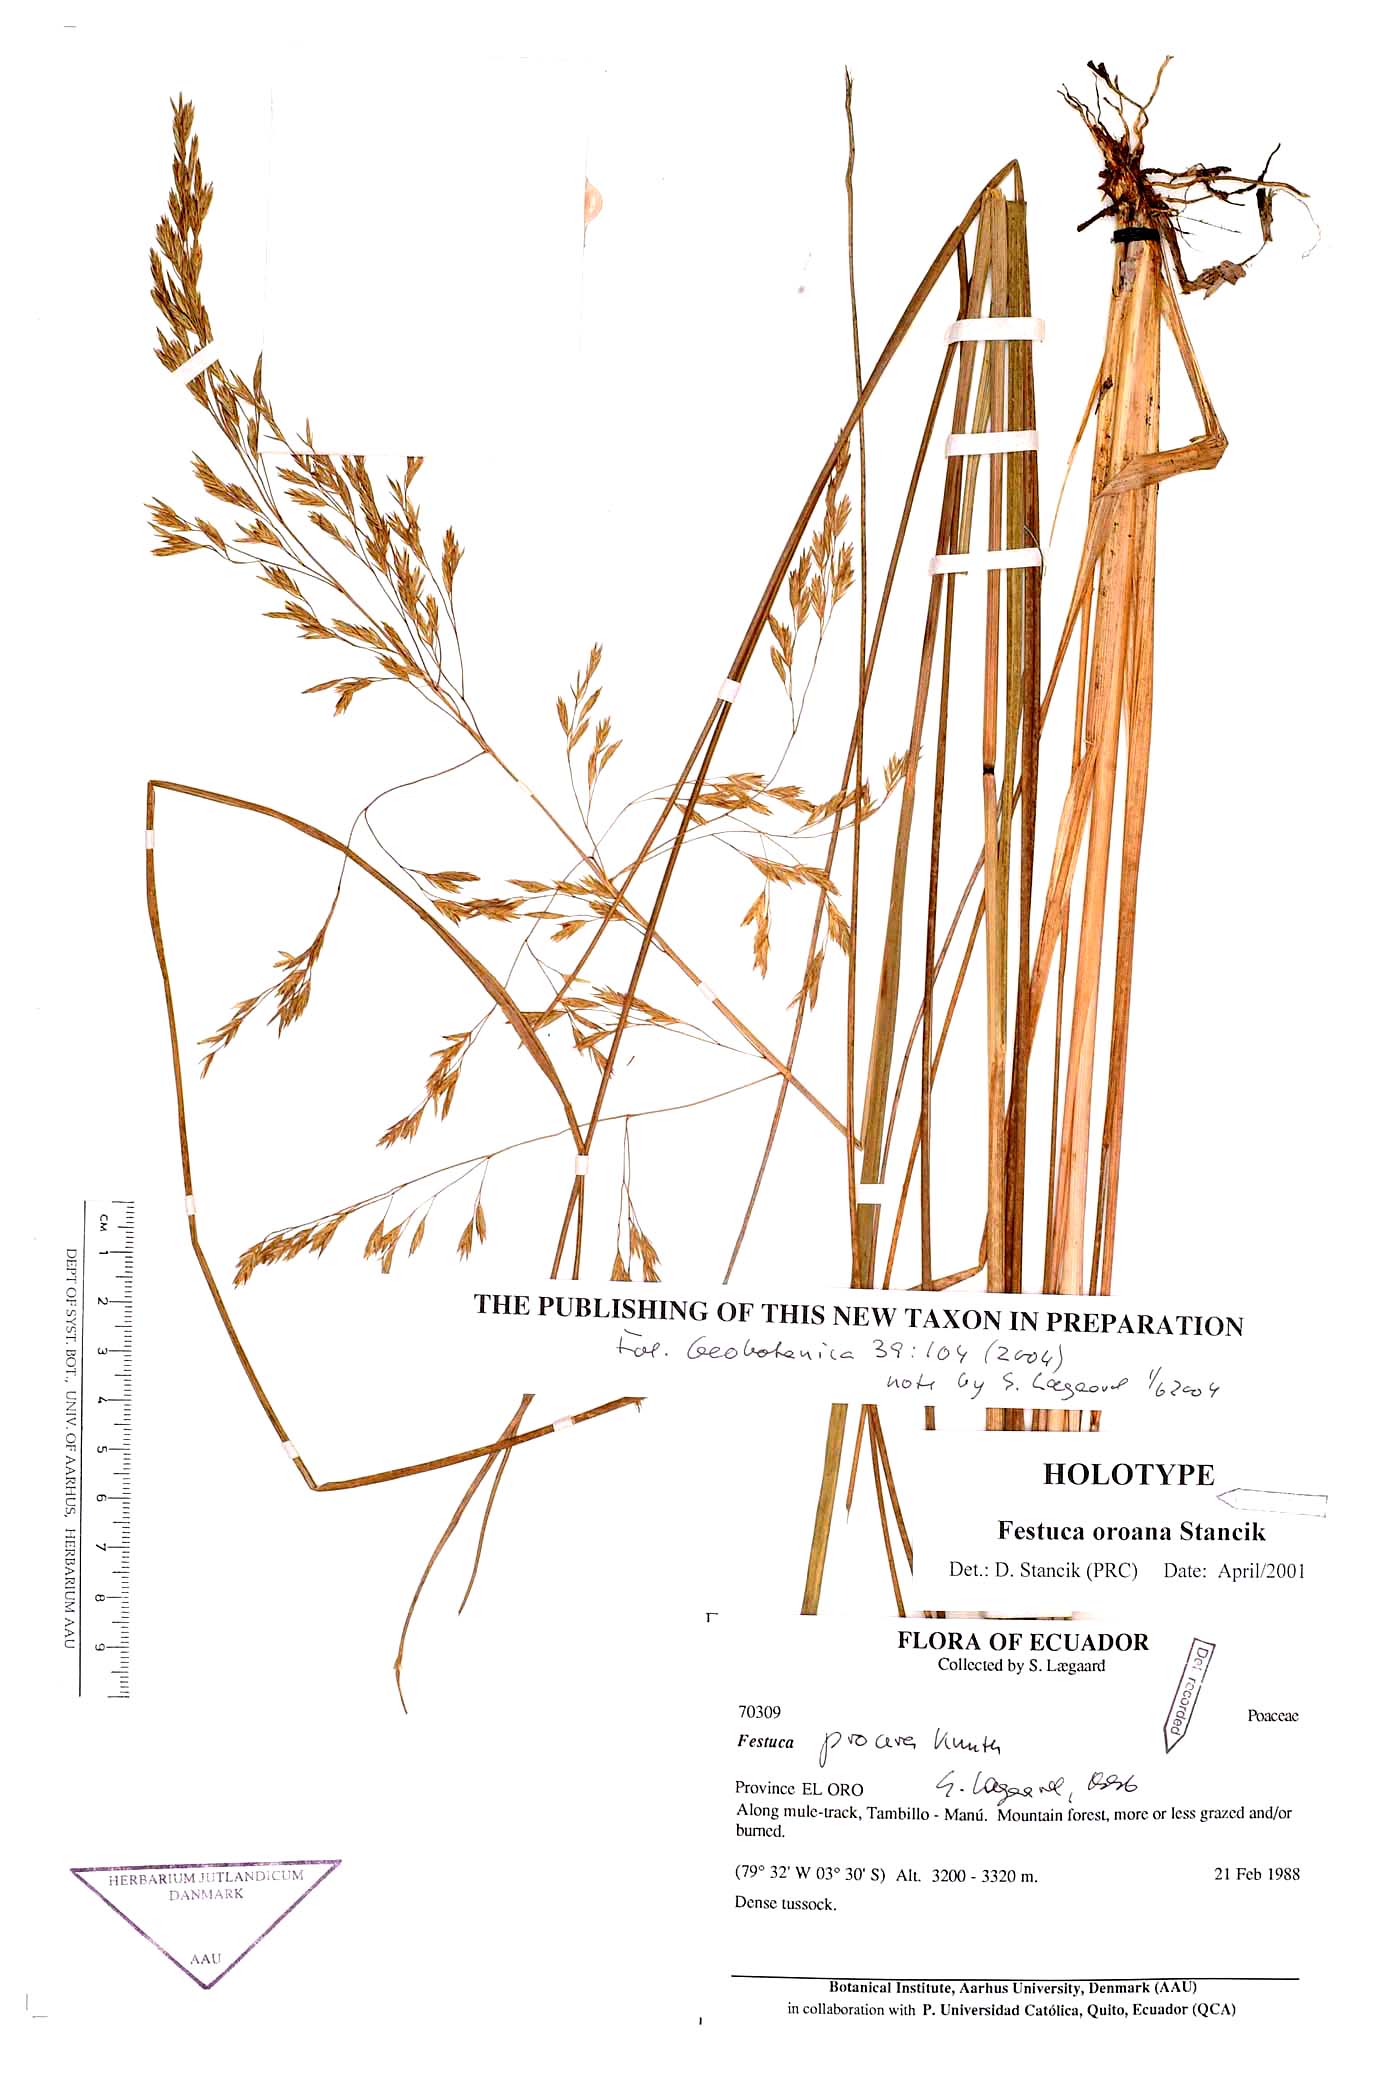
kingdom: Plantae
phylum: Tracheophyta
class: Liliopsida
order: Poales
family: Poaceae
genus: Festuca
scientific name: Festuca oroana
